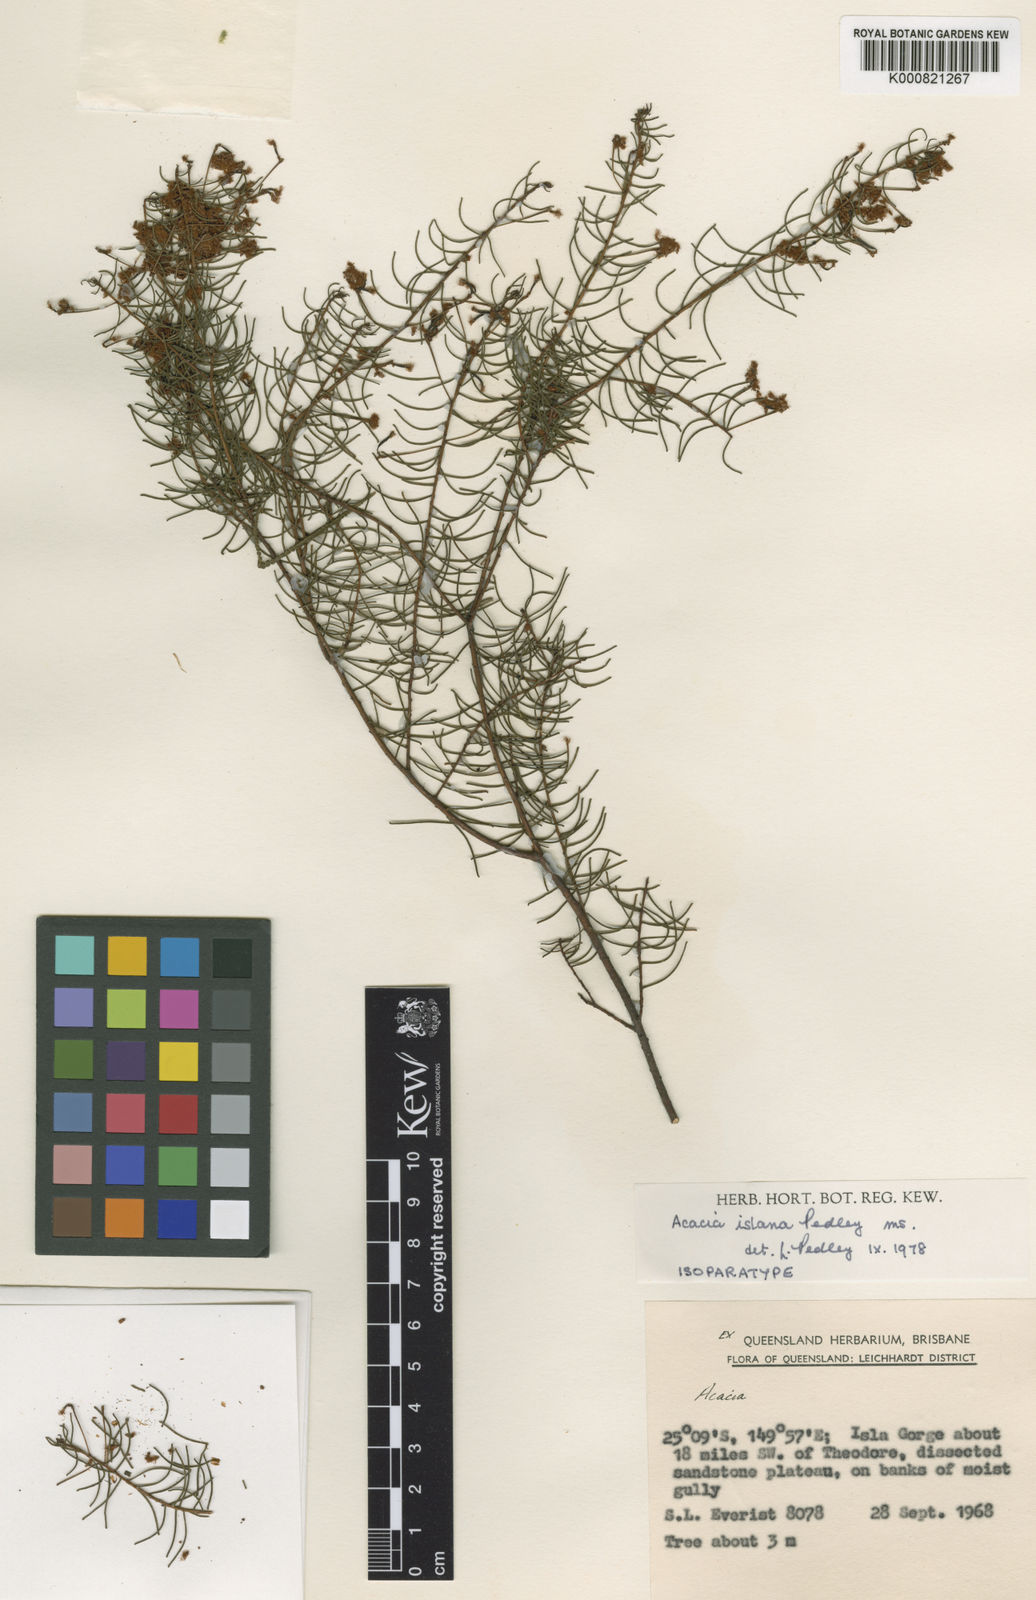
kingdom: Plantae
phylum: Tracheophyta
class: Magnoliopsida
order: Fabales
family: Fabaceae
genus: Acacia
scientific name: Acacia islana
